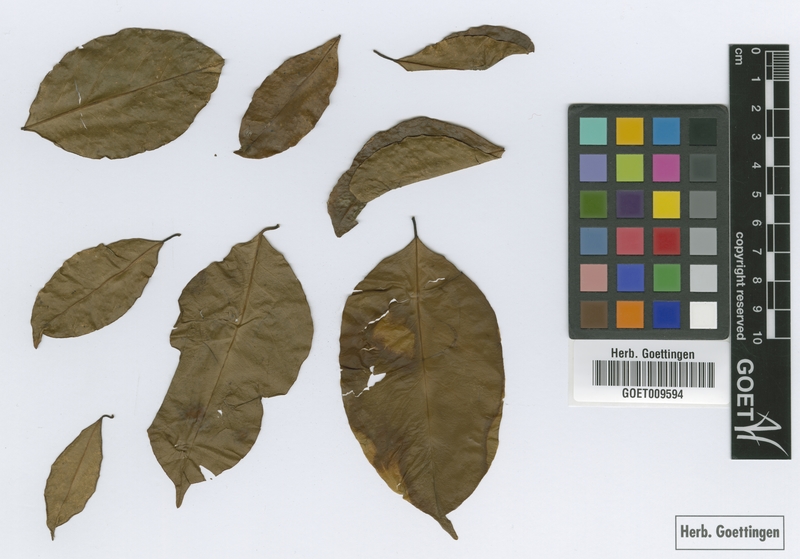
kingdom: Plantae
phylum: Tracheophyta
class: Magnoliopsida
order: Fabales
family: Polygalaceae
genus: Atroxima
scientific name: Atroxima afzeliana
